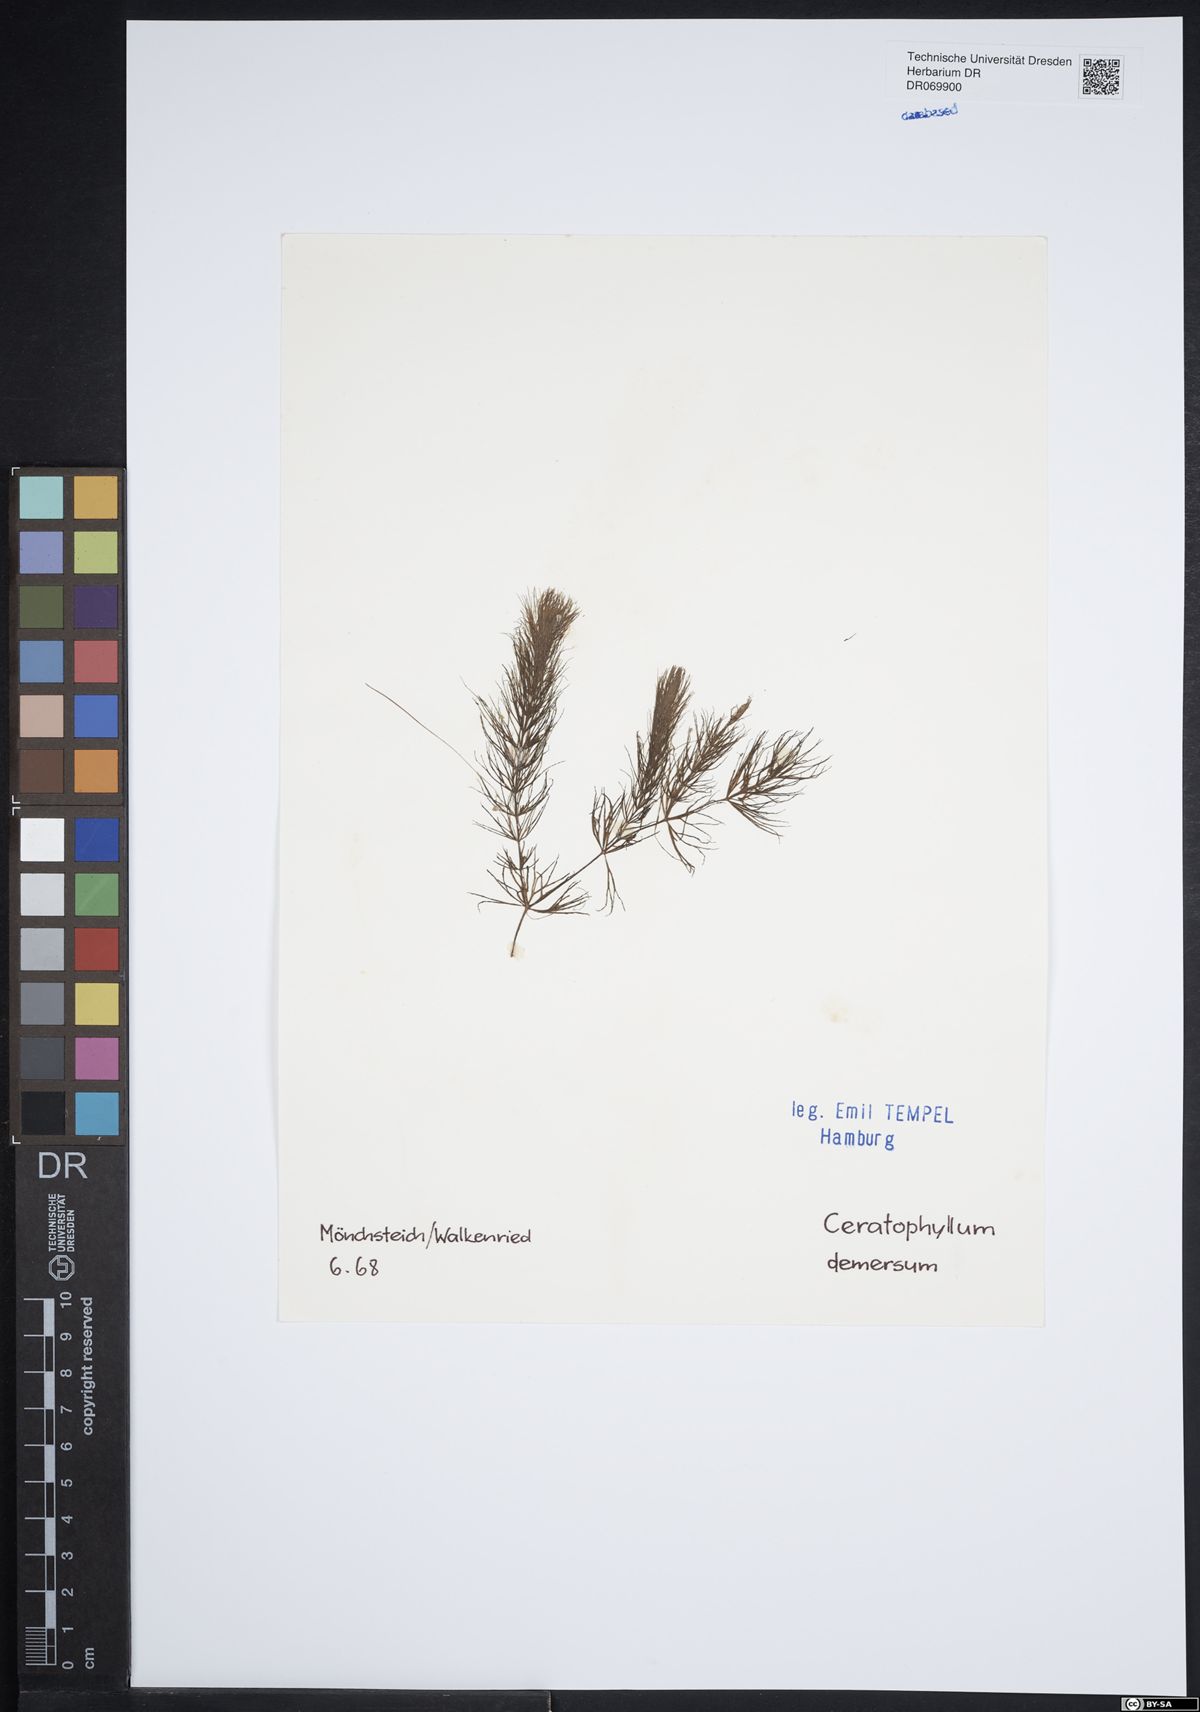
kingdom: Plantae
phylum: Tracheophyta
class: Magnoliopsida
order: Ceratophyllales
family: Ceratophyllaceae
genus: Ceratophyllum
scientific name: Ceratophyllum demersum
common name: Rigid hornwort
